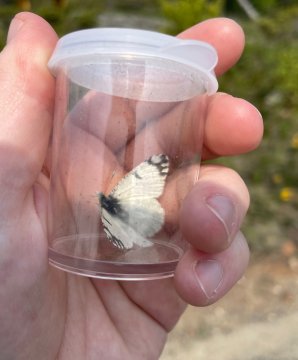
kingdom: Animalia
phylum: Arthropoda
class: Insecta
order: Lepidoptera
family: Pieridae
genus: Euchloe
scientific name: Euchloe ausonides
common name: Large Marble
